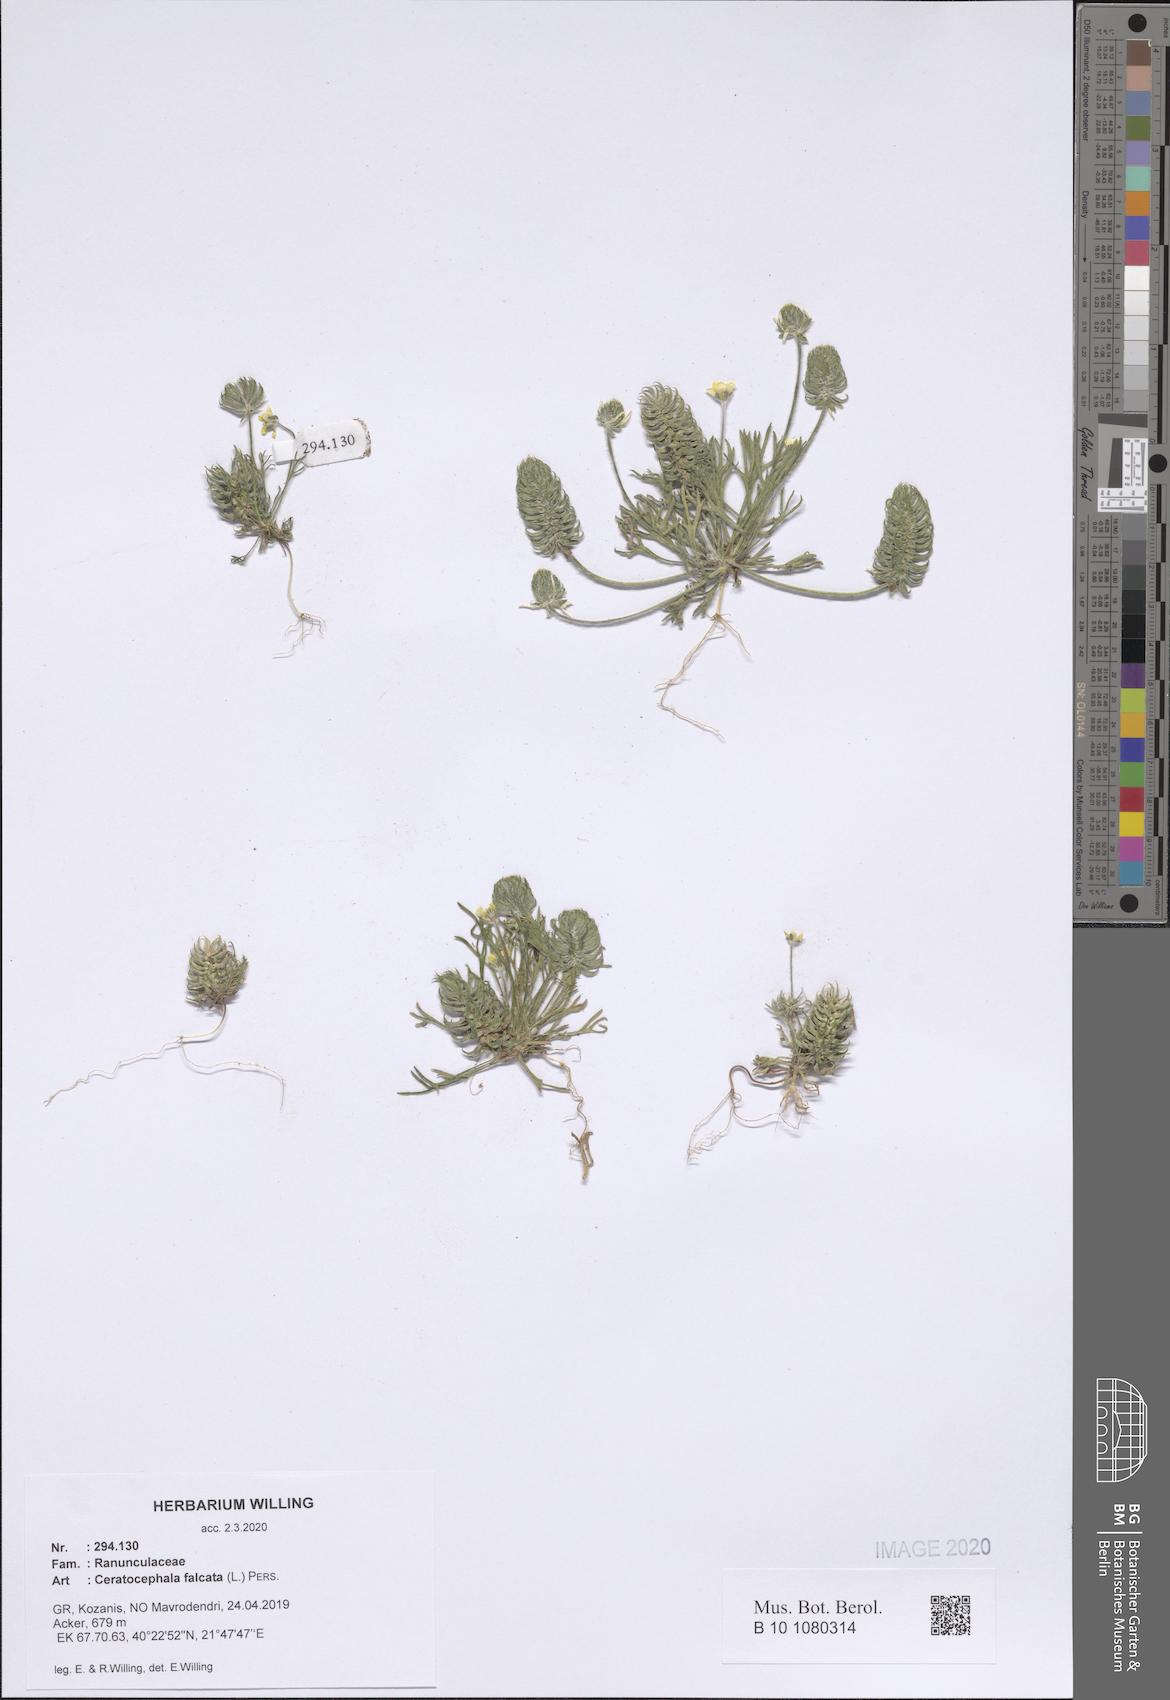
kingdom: Plantae
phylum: Tracheophyta
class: Magnoliopsida
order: Ranunculales
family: Ranunculaceae
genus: Ceratocephala
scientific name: Ceratocephala falcata
